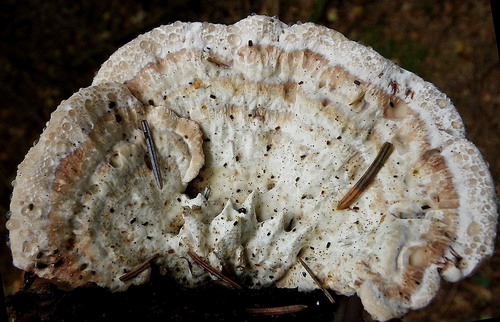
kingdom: Fungi
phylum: Basidiomycota
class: Agaricomycetes
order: Polyporales
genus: Calcipostia
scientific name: Calcipostia guttulata
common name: dråbe-kødporesvamp
